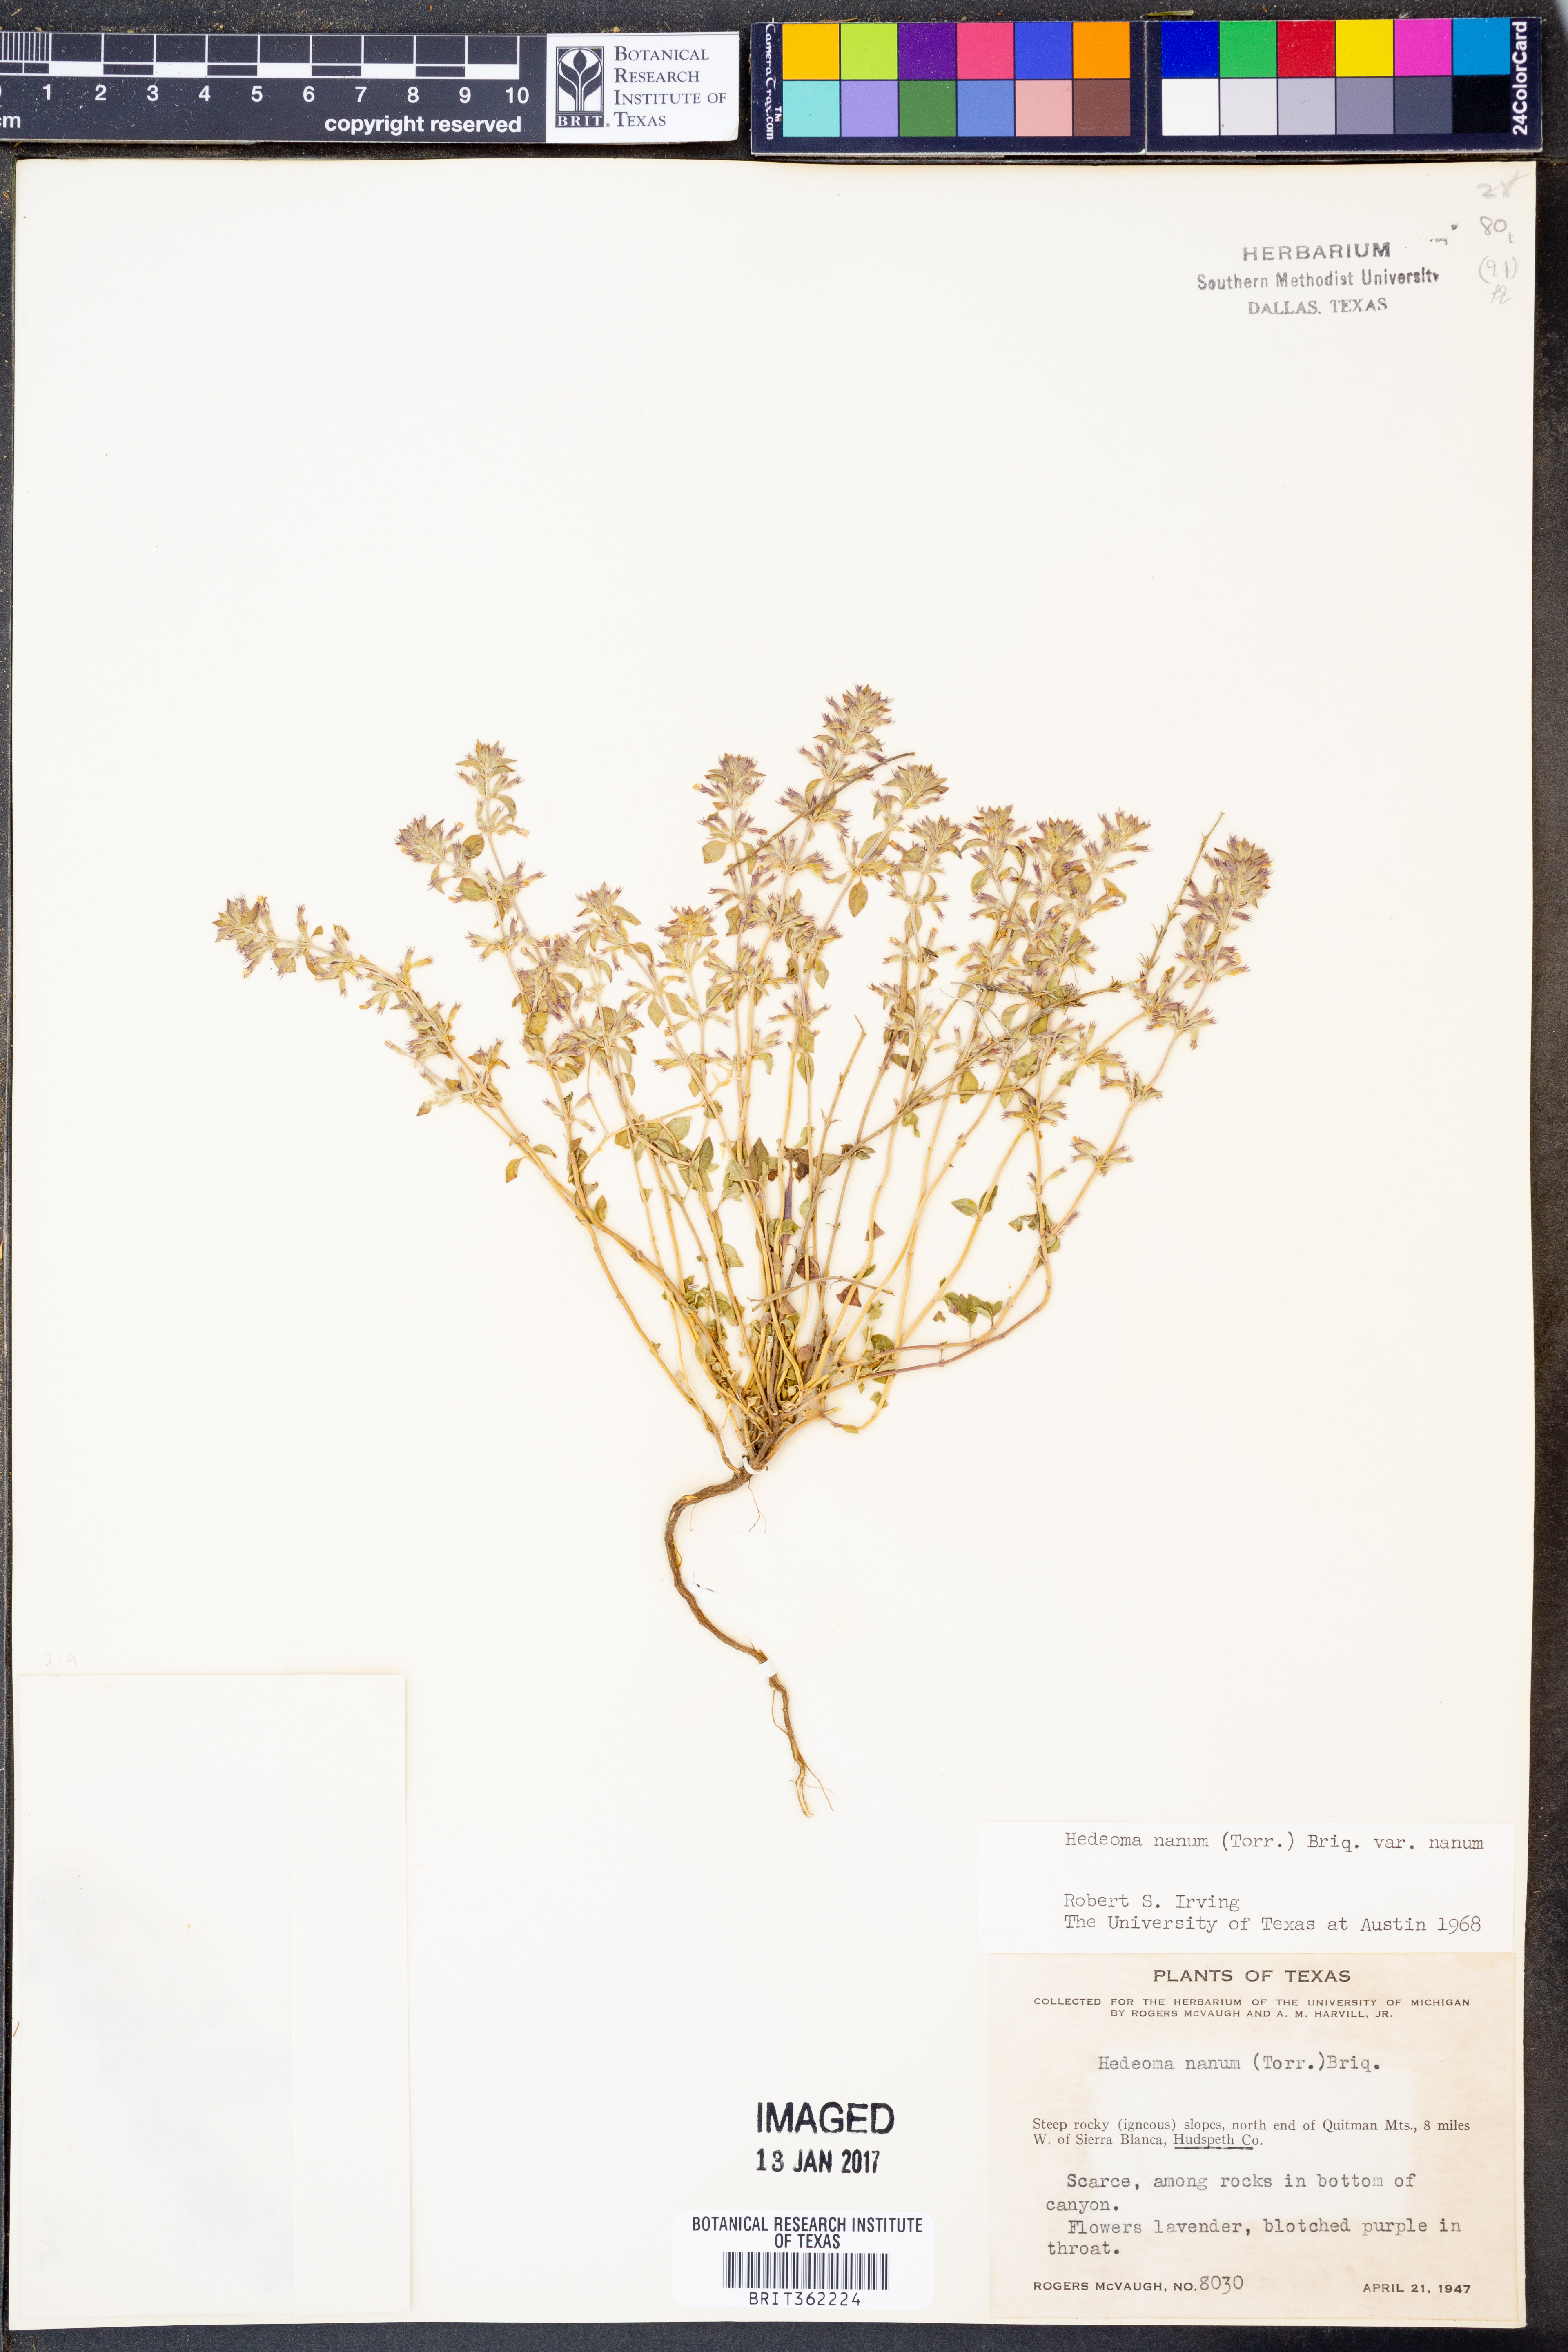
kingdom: Plantae
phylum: Tracheophyta
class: Magnoliopsida
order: Lamiales
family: Lamiaceae
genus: Hedeoma
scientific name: Hedeoma nana
